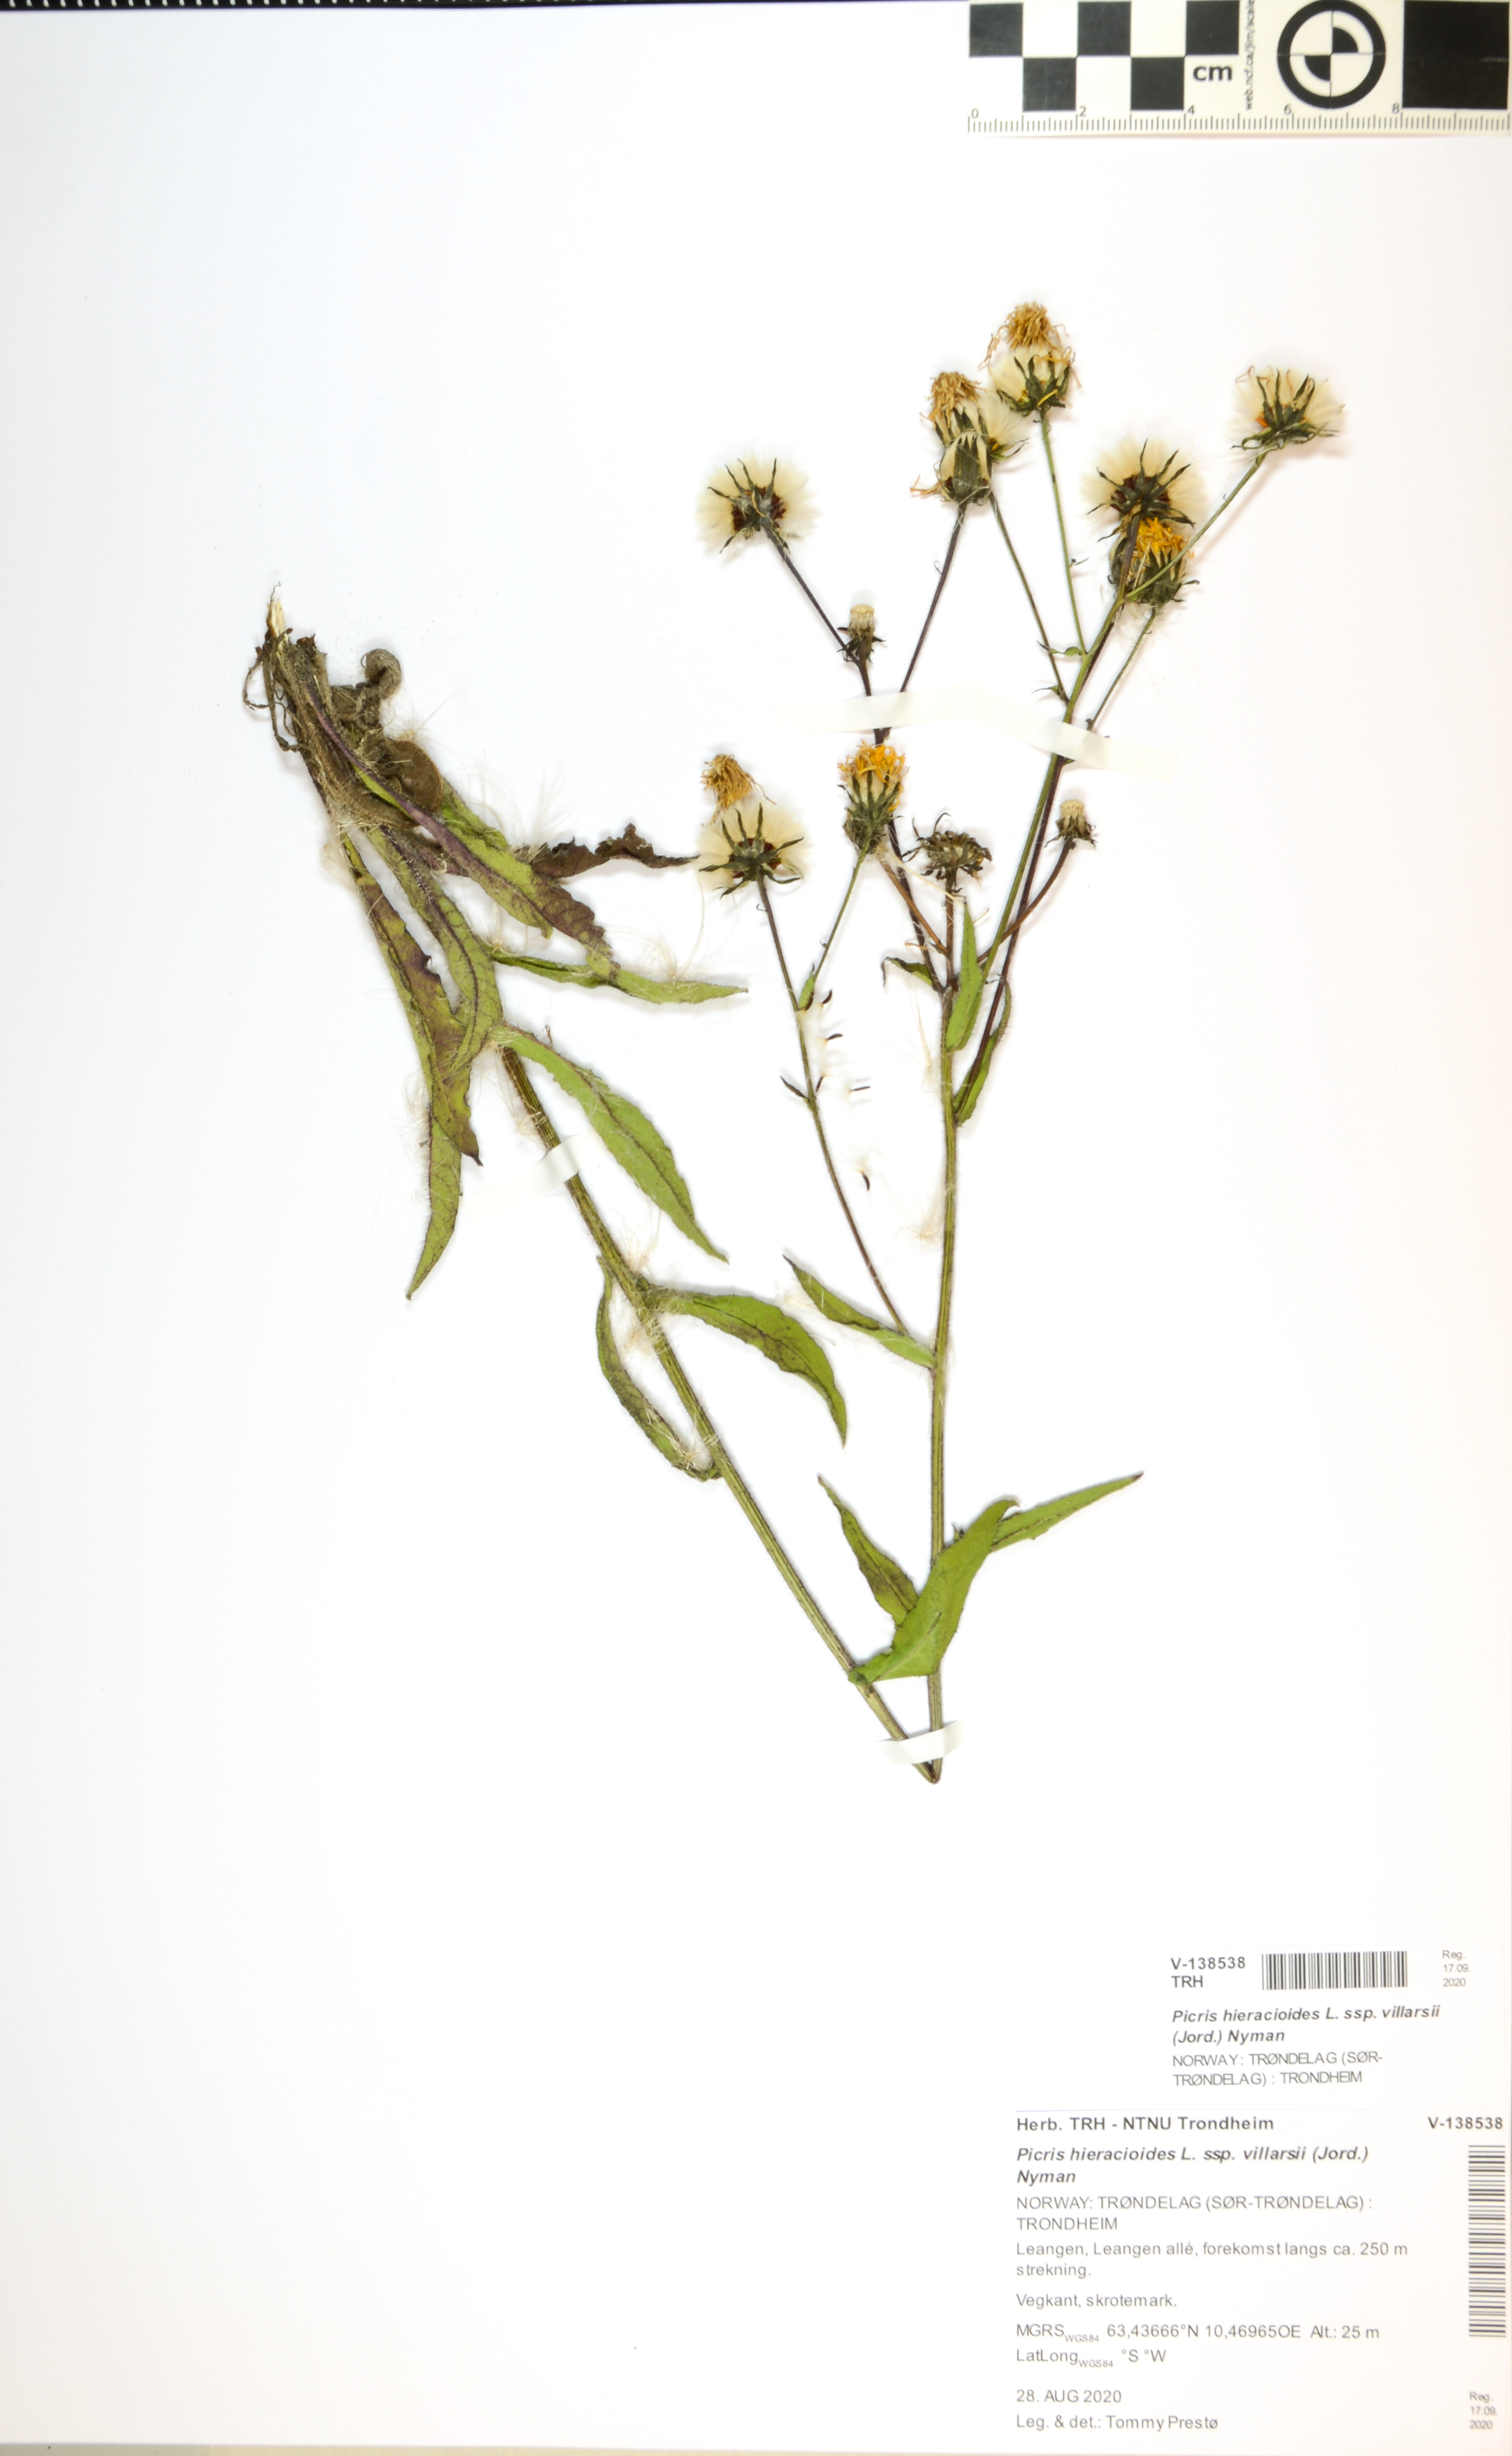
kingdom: Plantae
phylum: Tracheophyta
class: Magnoliopsida
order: Asterales
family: Asteraceae
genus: Picris
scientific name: Picris hieracioides
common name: Hawkweed oxtongue
